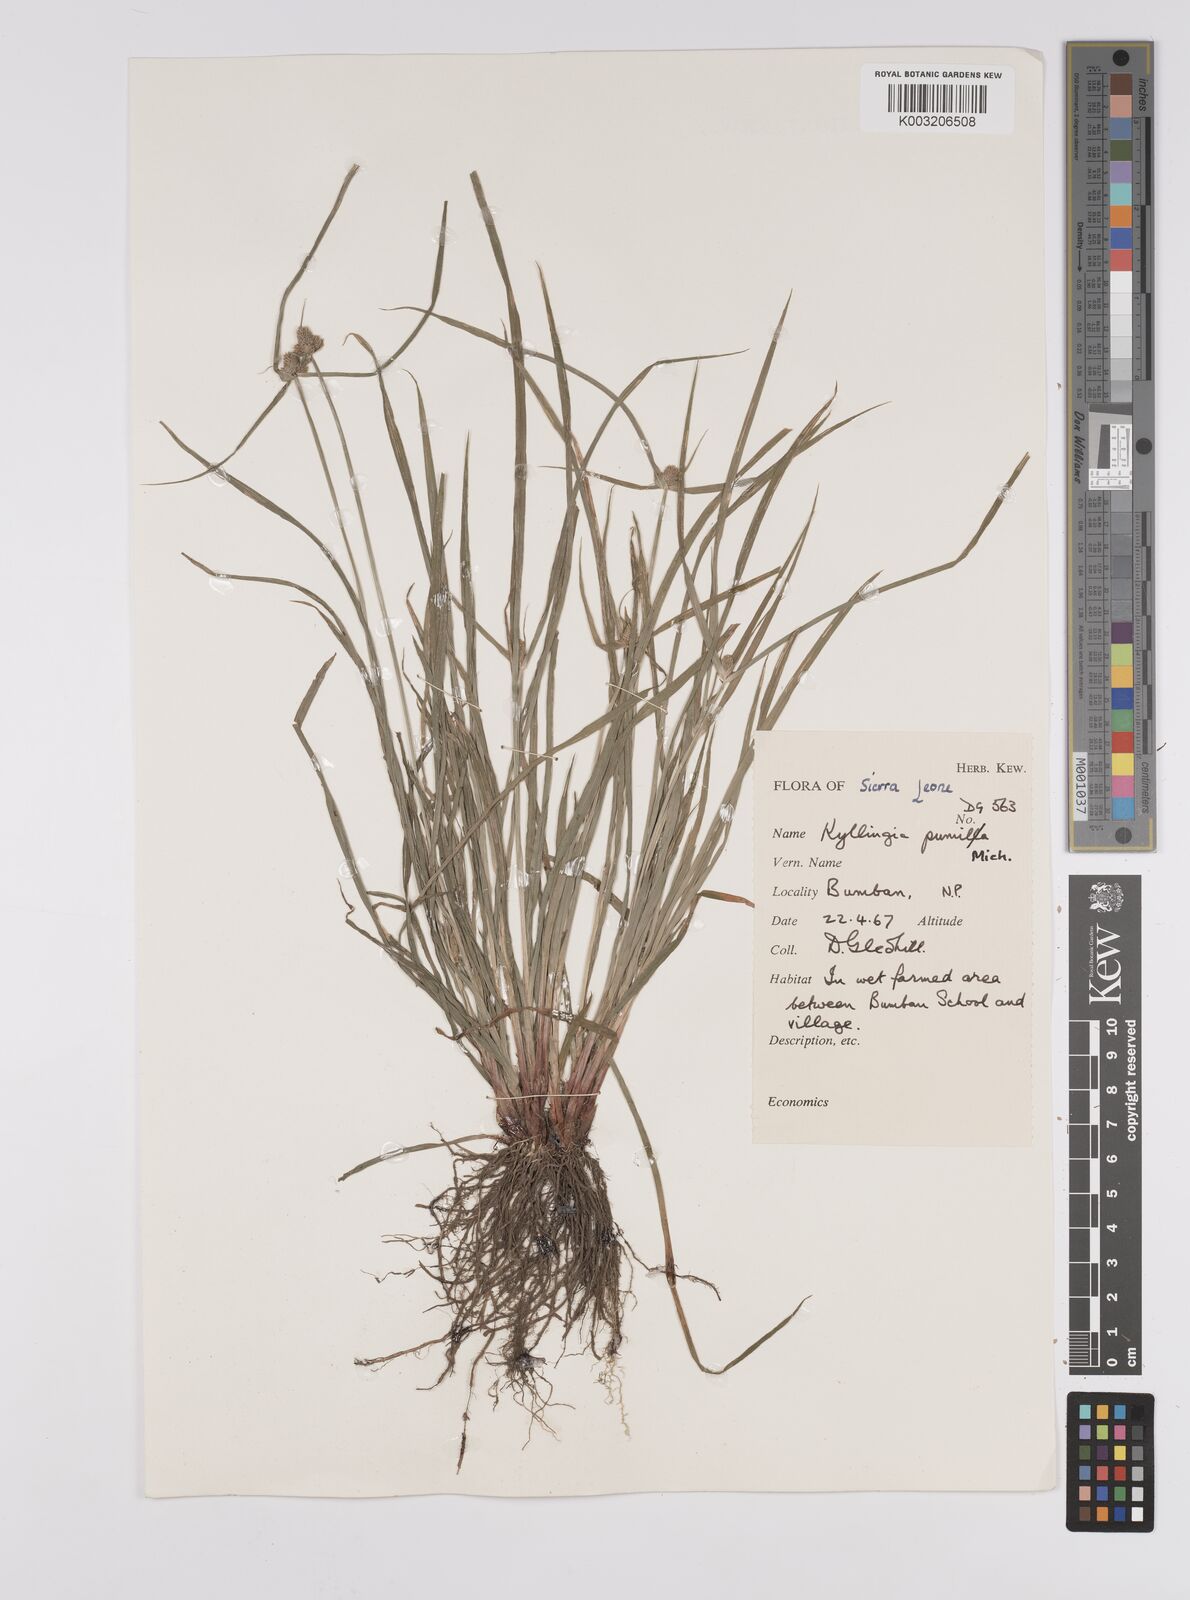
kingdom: Plantae
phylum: Tracheophyta
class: Liliopsida
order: Poales
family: Cyperaceae
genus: Cyperus
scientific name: Cyperus
